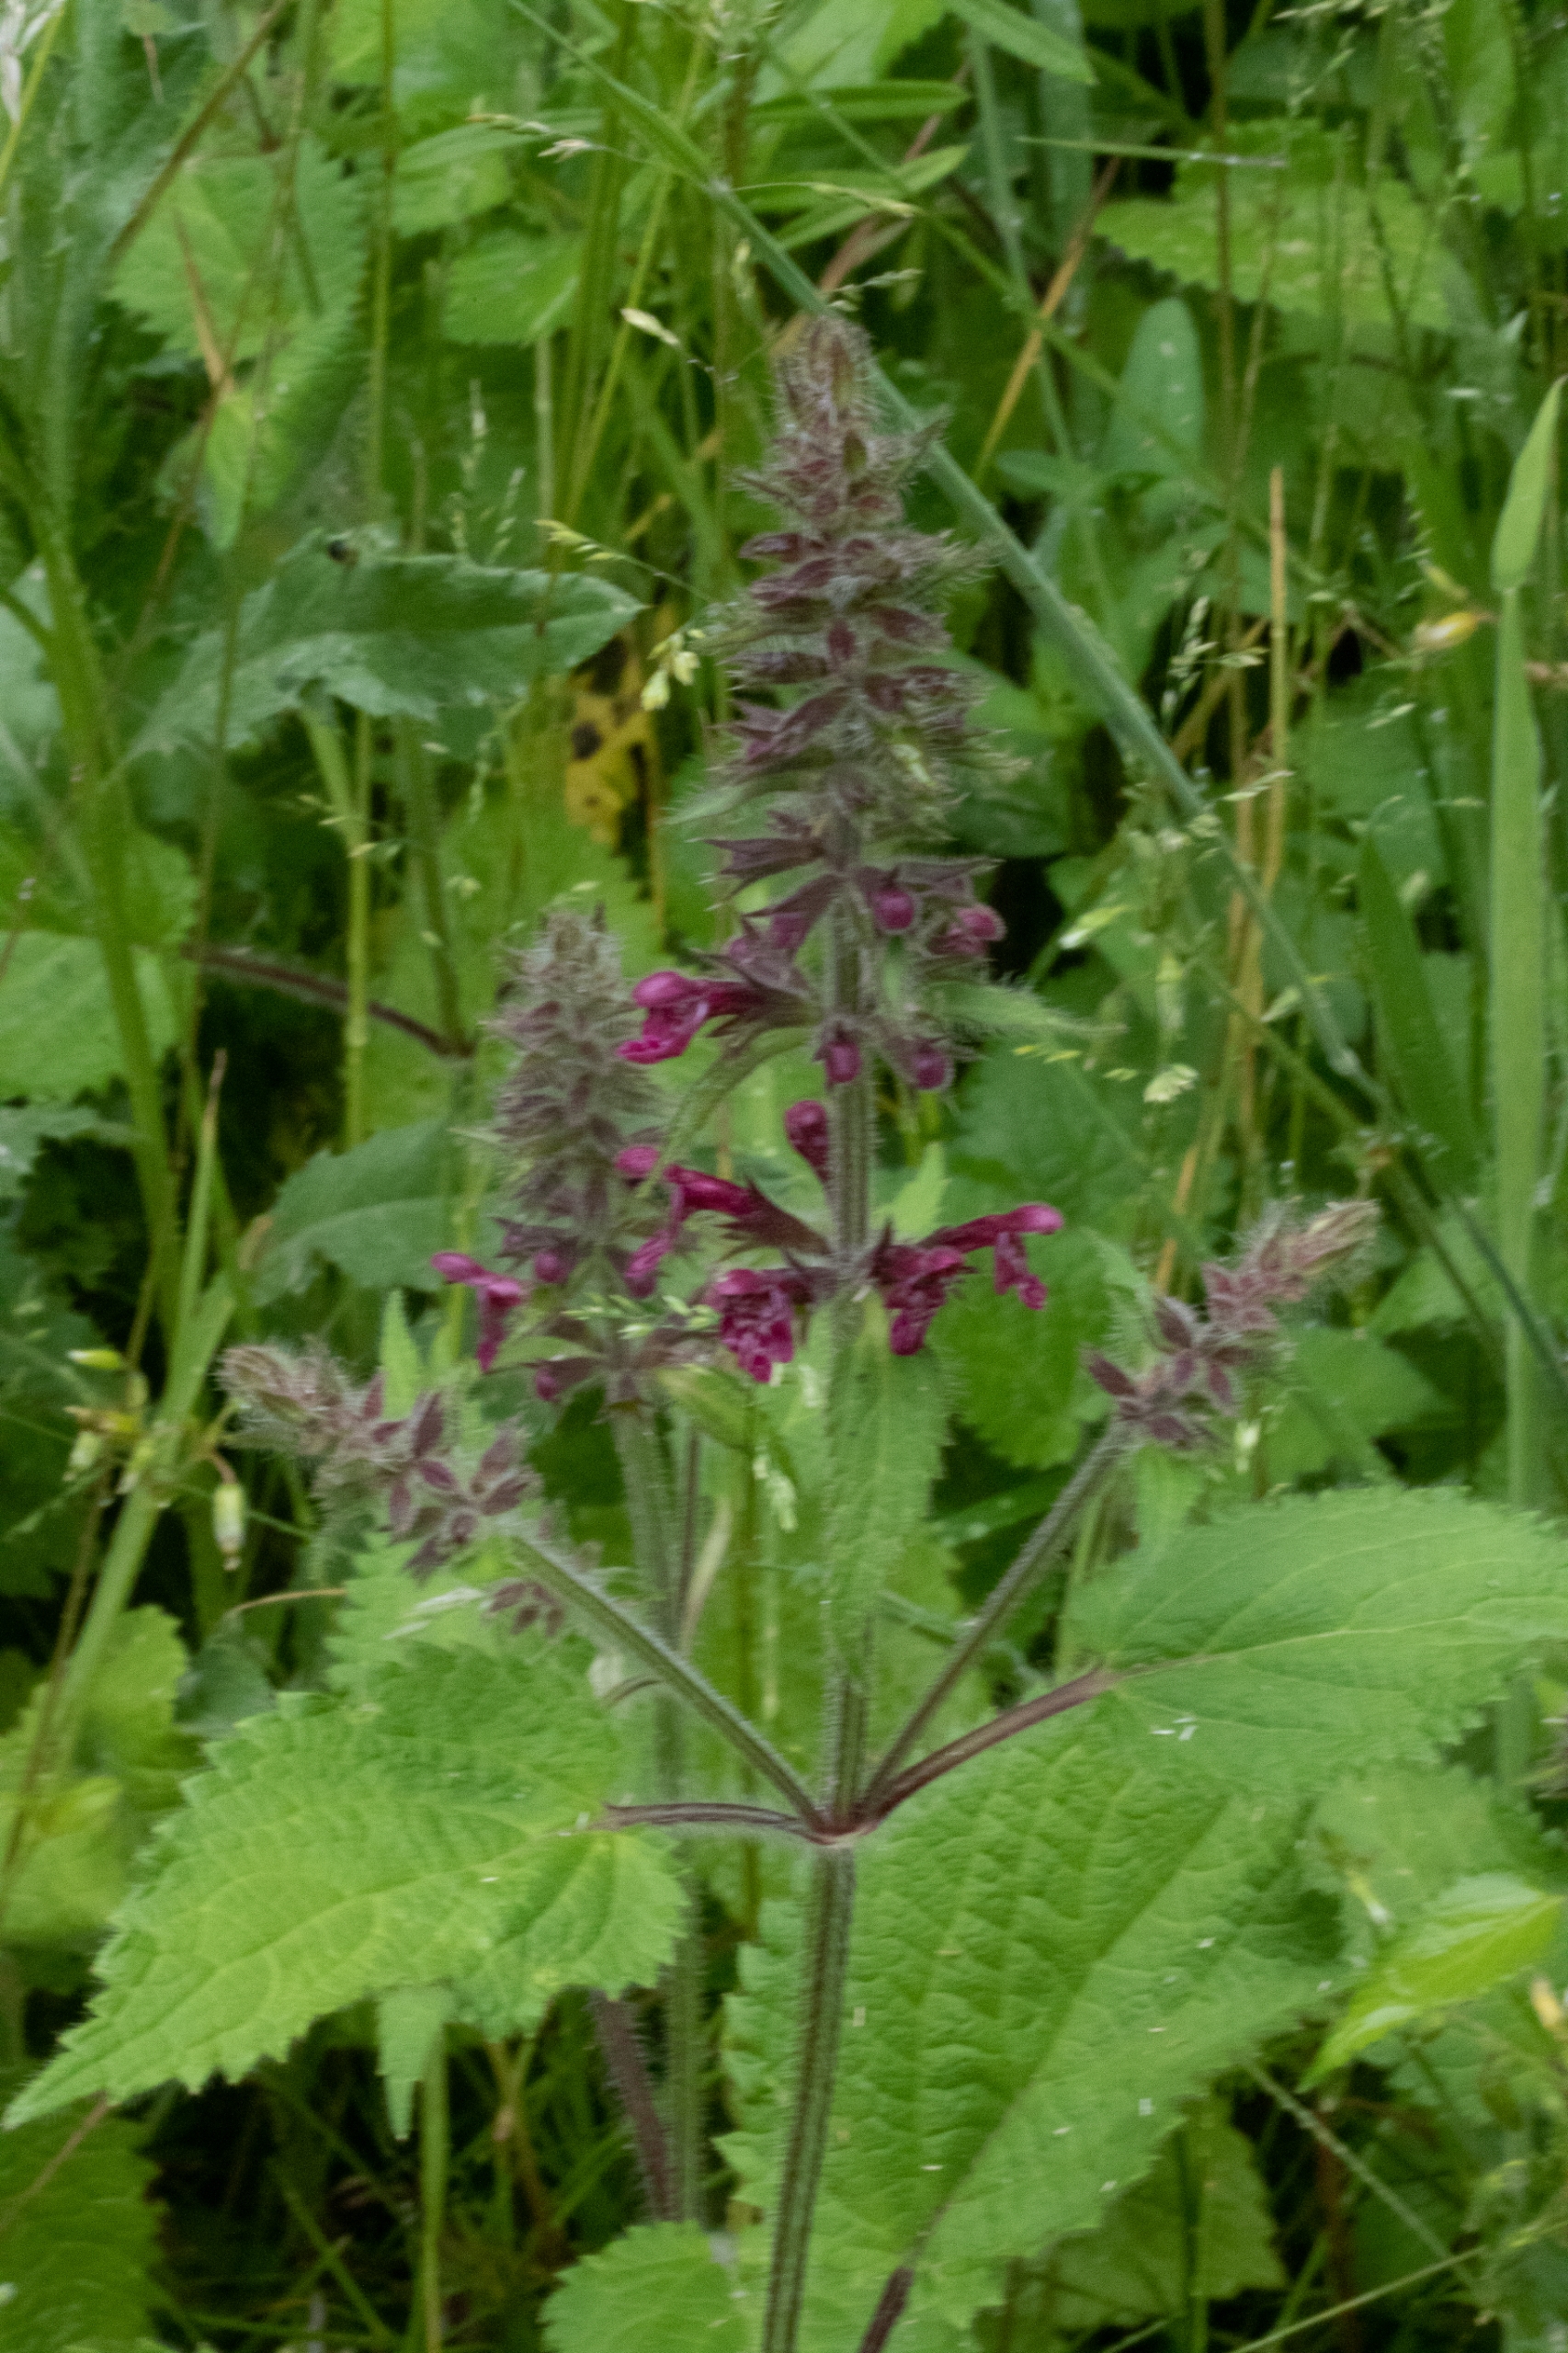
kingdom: Plantae
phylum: Tracheophyta
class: Magnoliopsida
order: Lamiales
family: Lamiaceae
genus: Stachys
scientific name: Stachys sylvatica
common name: Skov-galtetand
